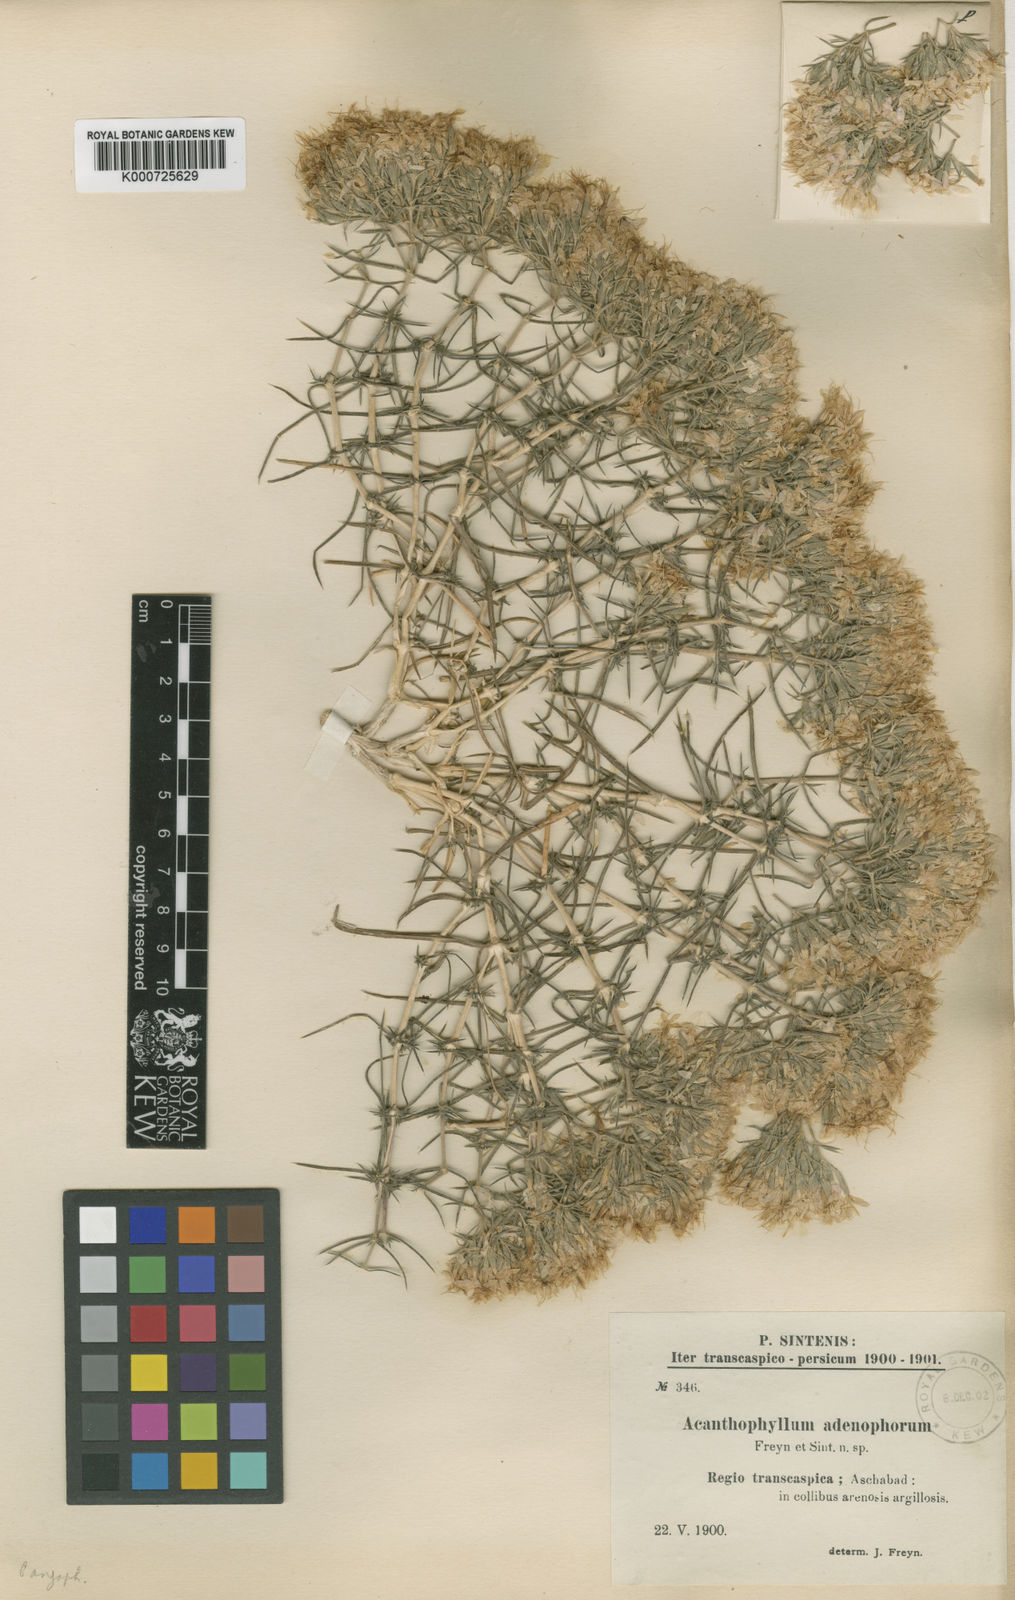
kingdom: Plantae
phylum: Tracheophyta
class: Magnoliopsida
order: Caryophyllales
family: Caryophyllaceae
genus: Acanthophyllum
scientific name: Acanthophyllum adenophorum
